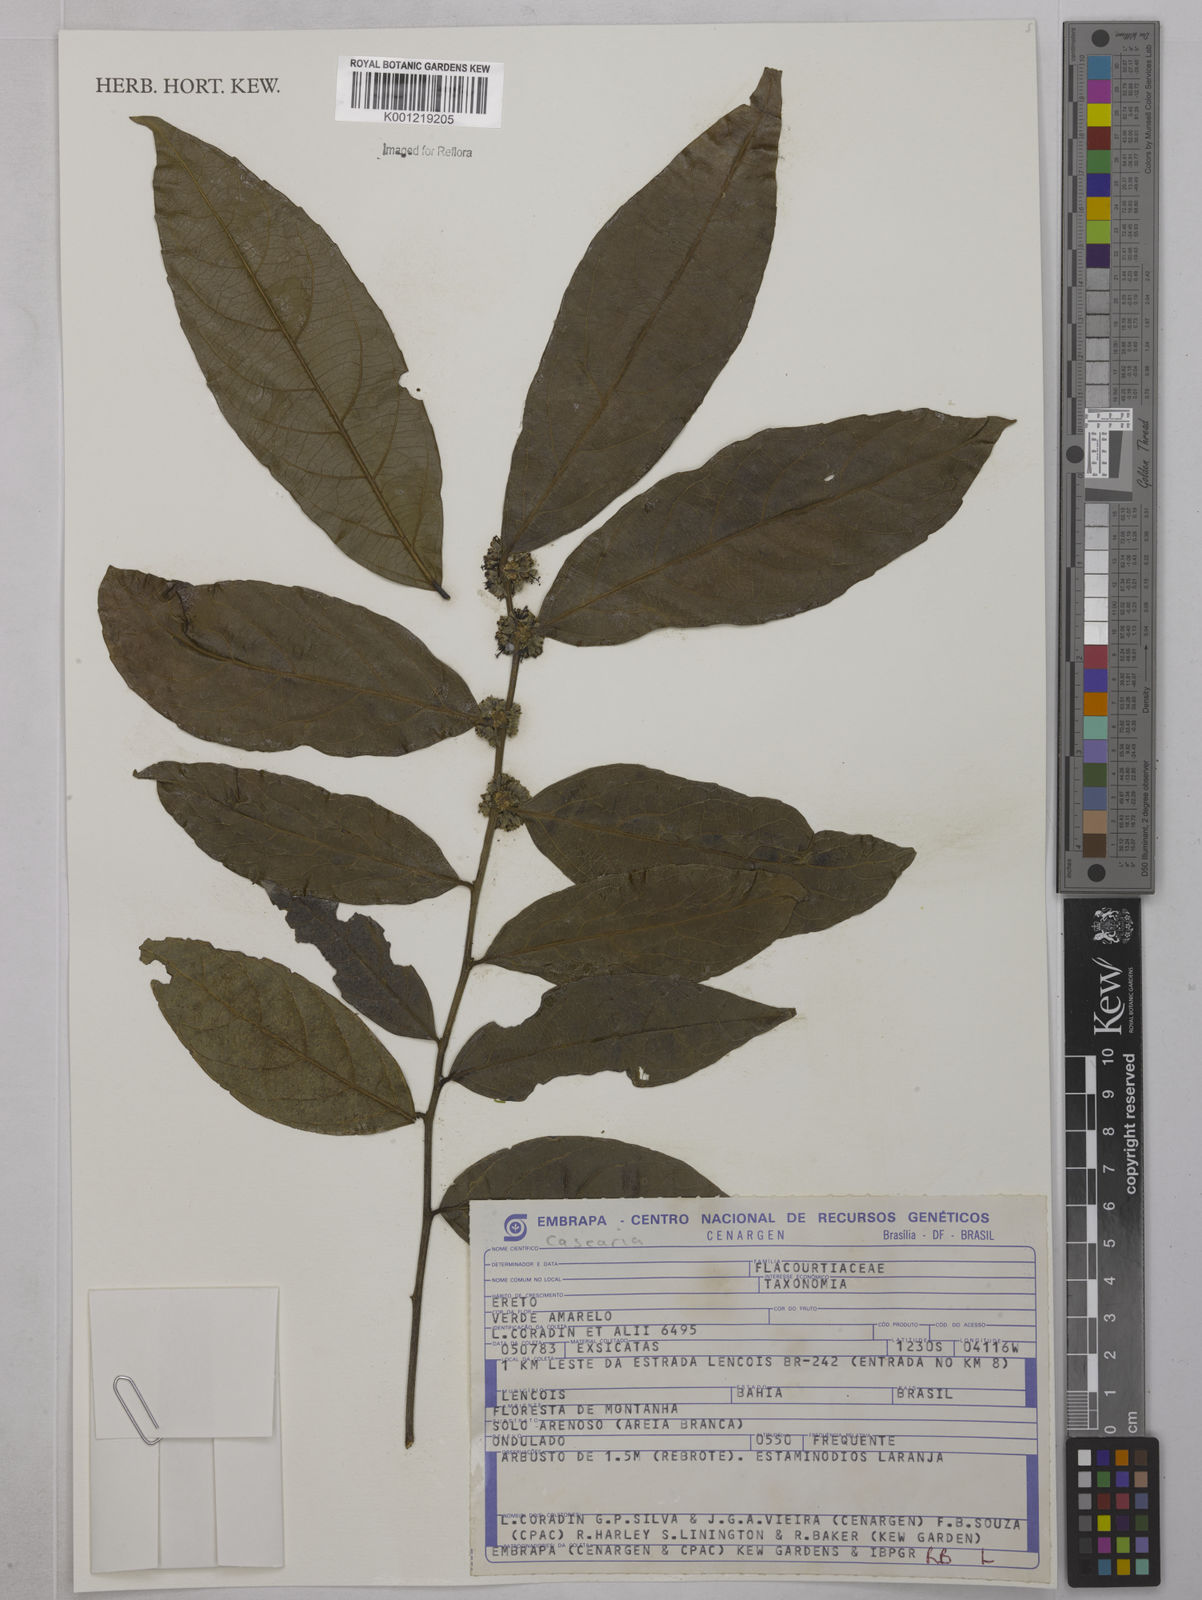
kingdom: Plantae
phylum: Tracheophyta
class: Magnoliopsida
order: Malpighiales
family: Salicaceae
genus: Casearia
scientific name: Casearia
